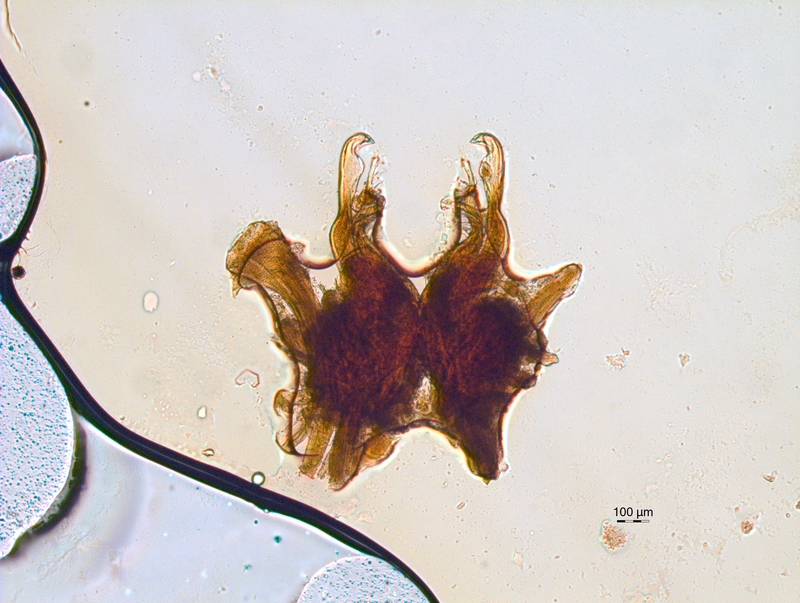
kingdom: Animalia
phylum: Arthropoda
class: Diplopoda
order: Chordeumatida
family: Chordeumatidae
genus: Mycogona
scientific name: Mycogona germanica
